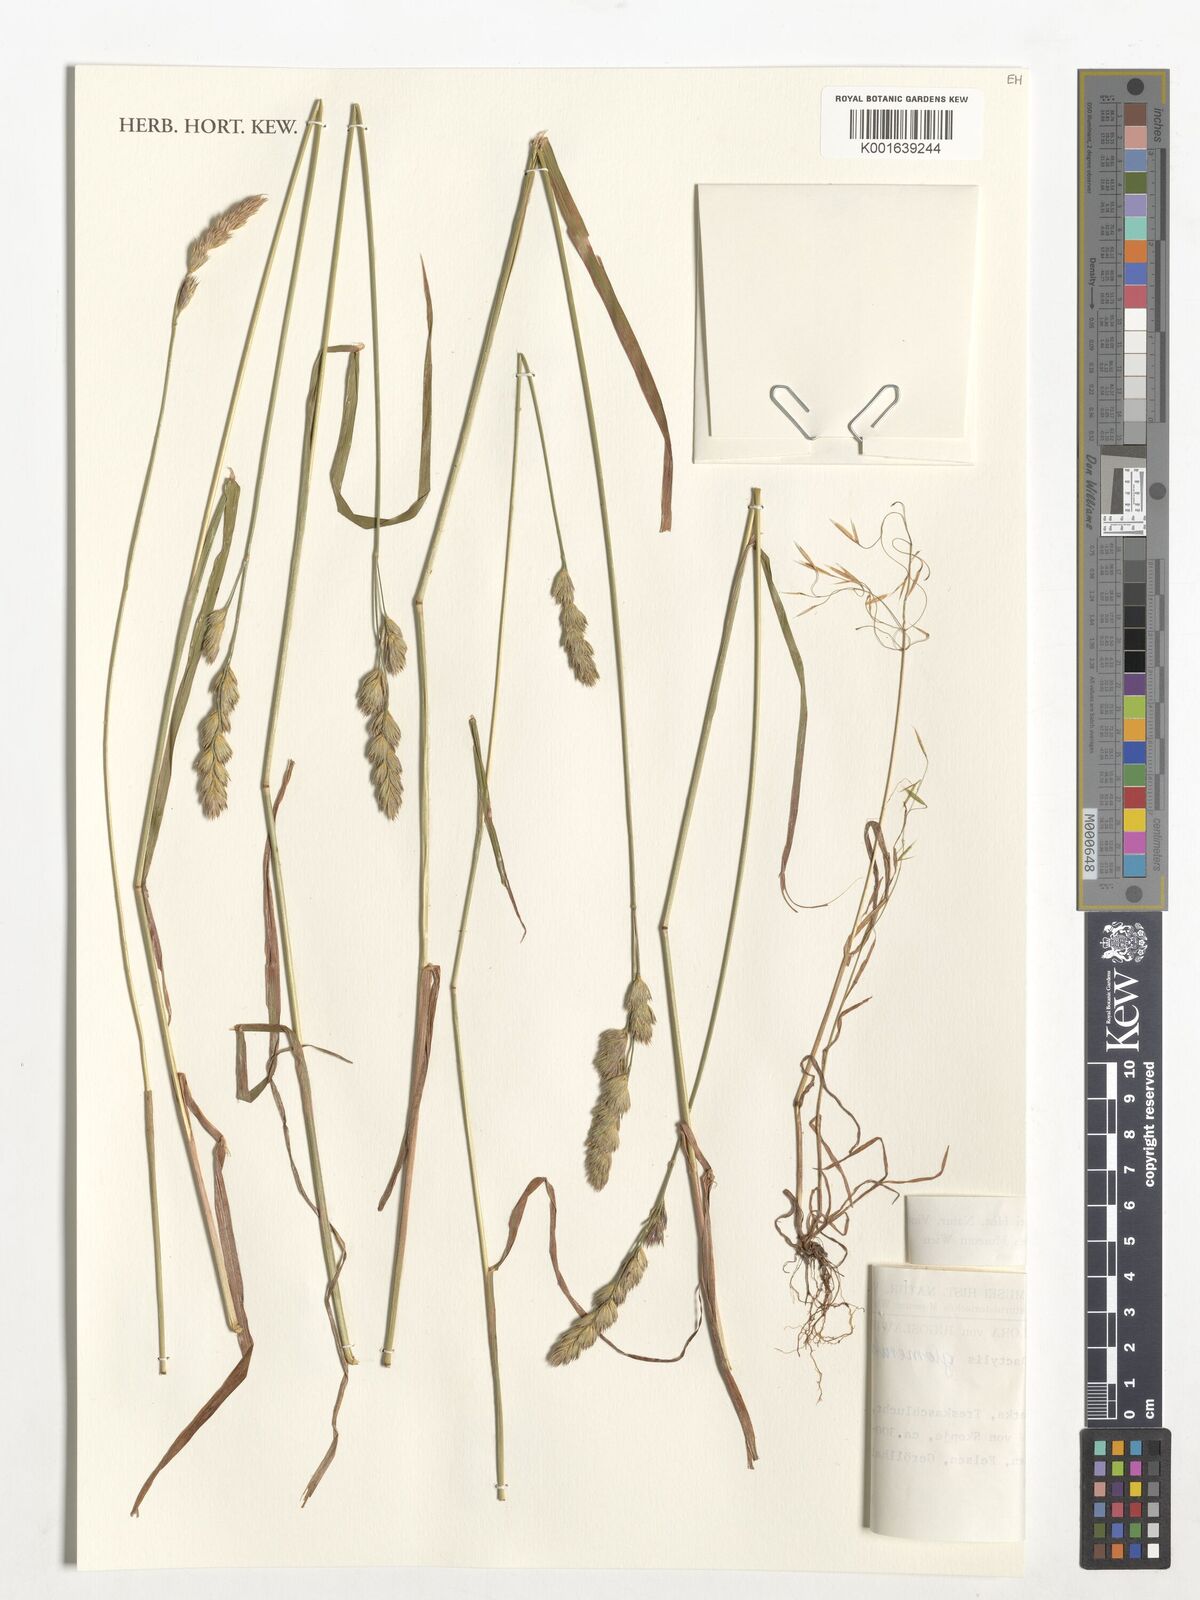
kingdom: Plantae
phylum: Tracheophyta
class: Liliopsida
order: Poales
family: Poaceae
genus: Dactylis
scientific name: Dactylis glomerata
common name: Orchardgrass
